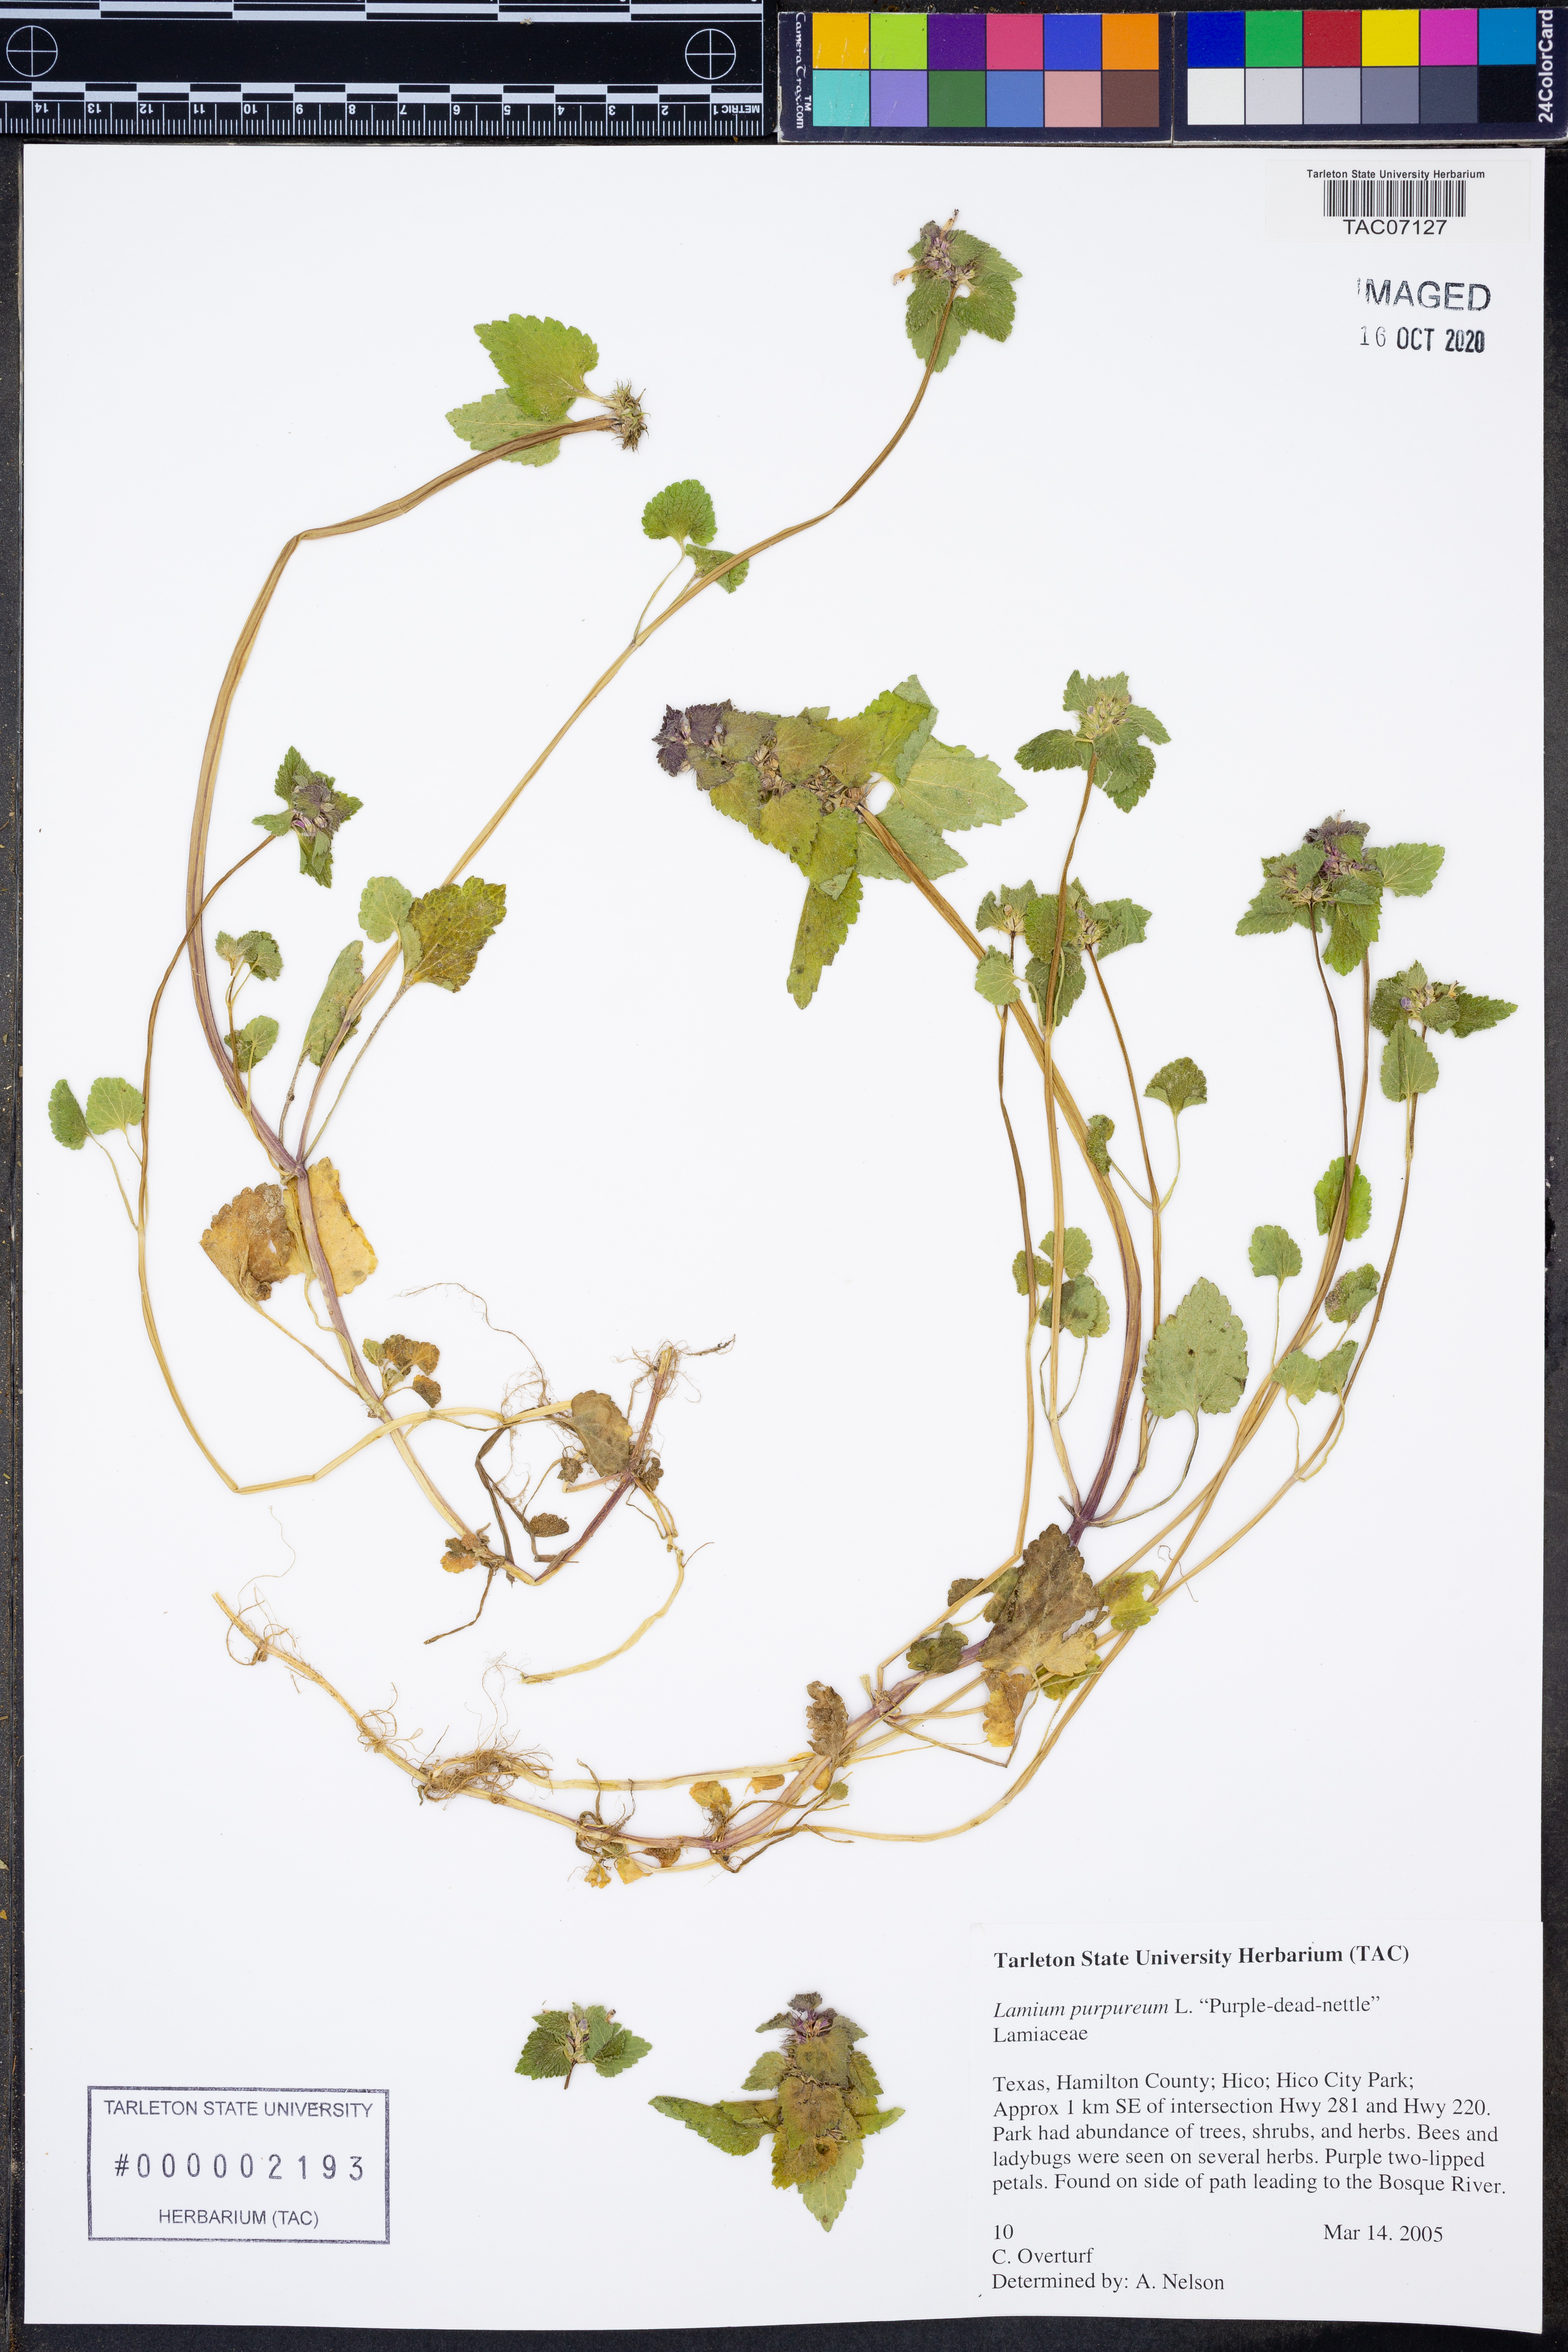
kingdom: Plantae
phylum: Tracheophyta
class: Magnoliopsida
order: Lamiales
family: Lamiaceae
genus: Lamium
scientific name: Lamium purpureum
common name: Red dead-nettle
